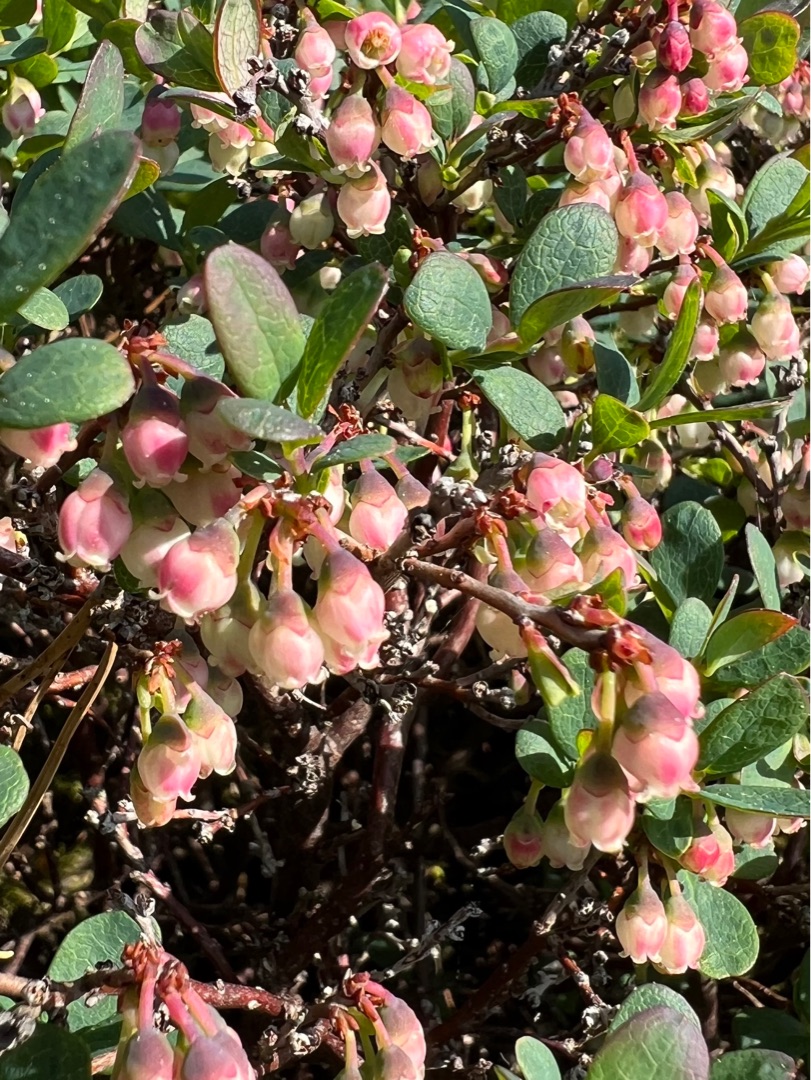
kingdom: Plantae
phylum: Tracheophyta
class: Magnoliopsida
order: Ericales
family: Ericaceae
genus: Vaccinium
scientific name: Vaccinium uliginosum
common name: Mose-bølle
